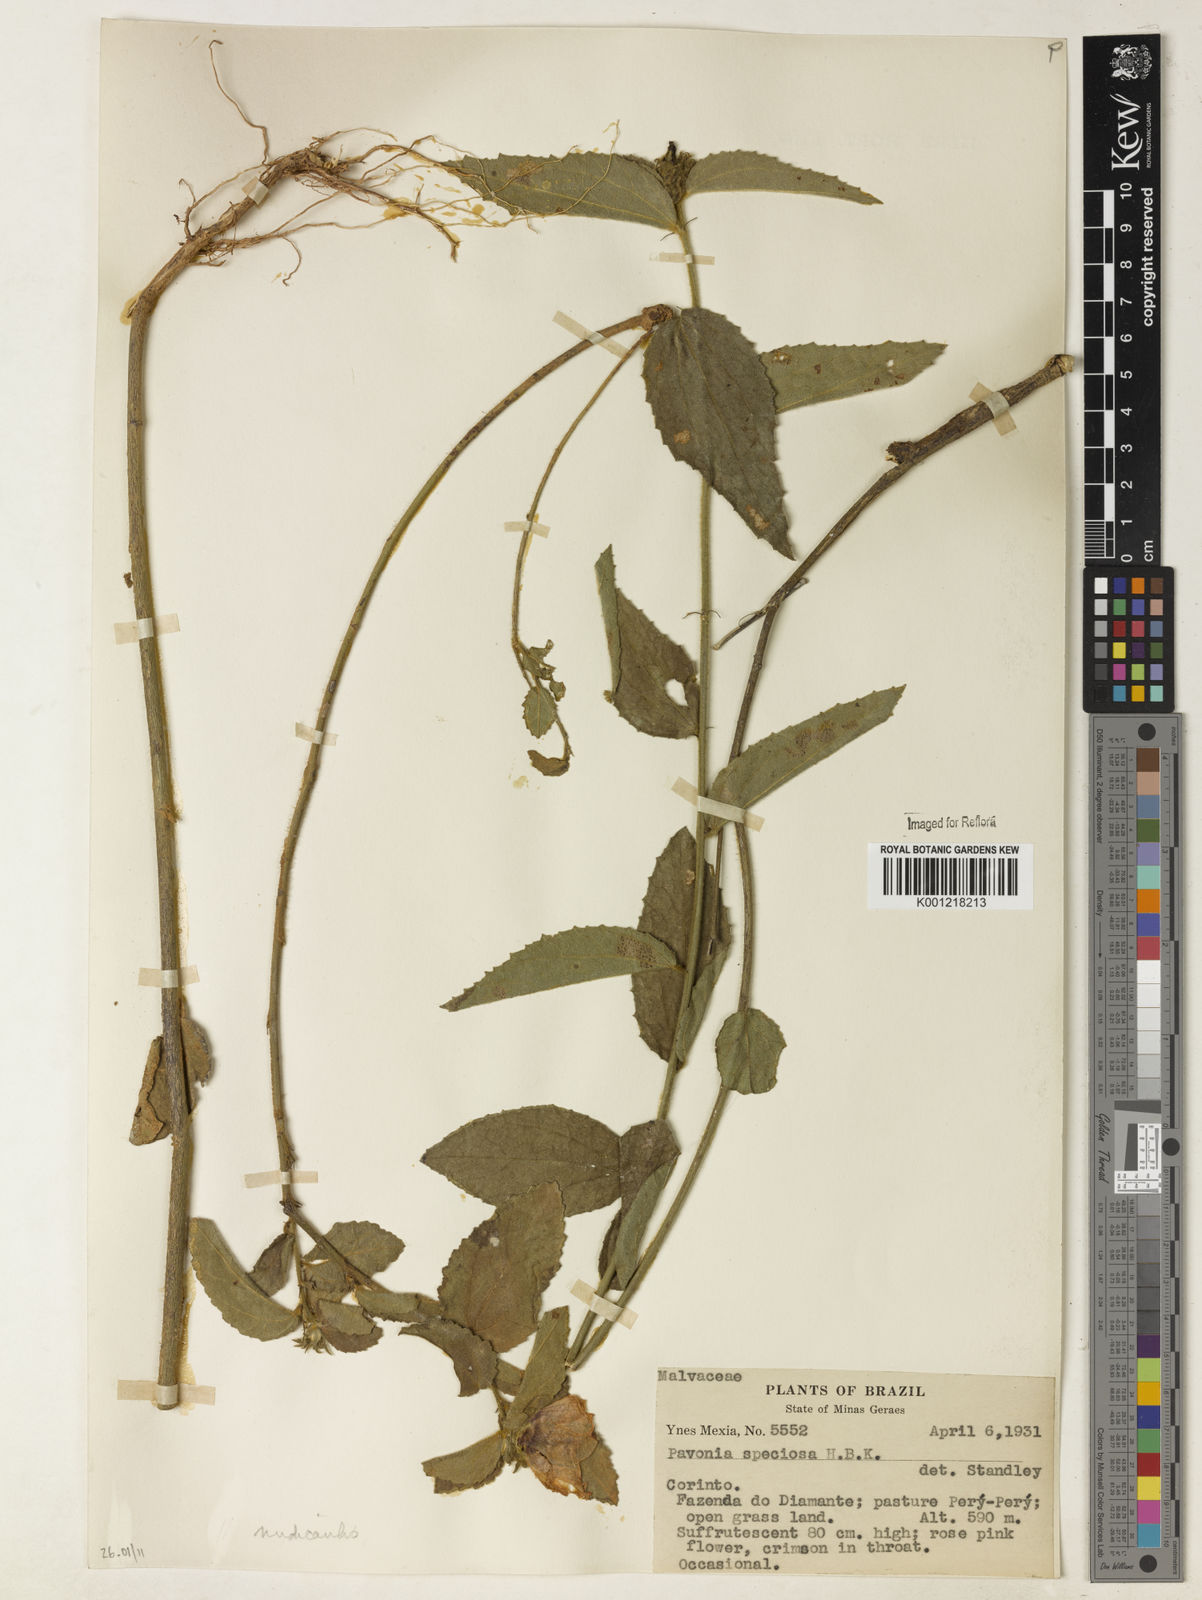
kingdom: Plantae
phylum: Tracheophyta
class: Magnoliopsida
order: Malvales
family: Malvaceae
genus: Peltaea
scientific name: Peltaea
